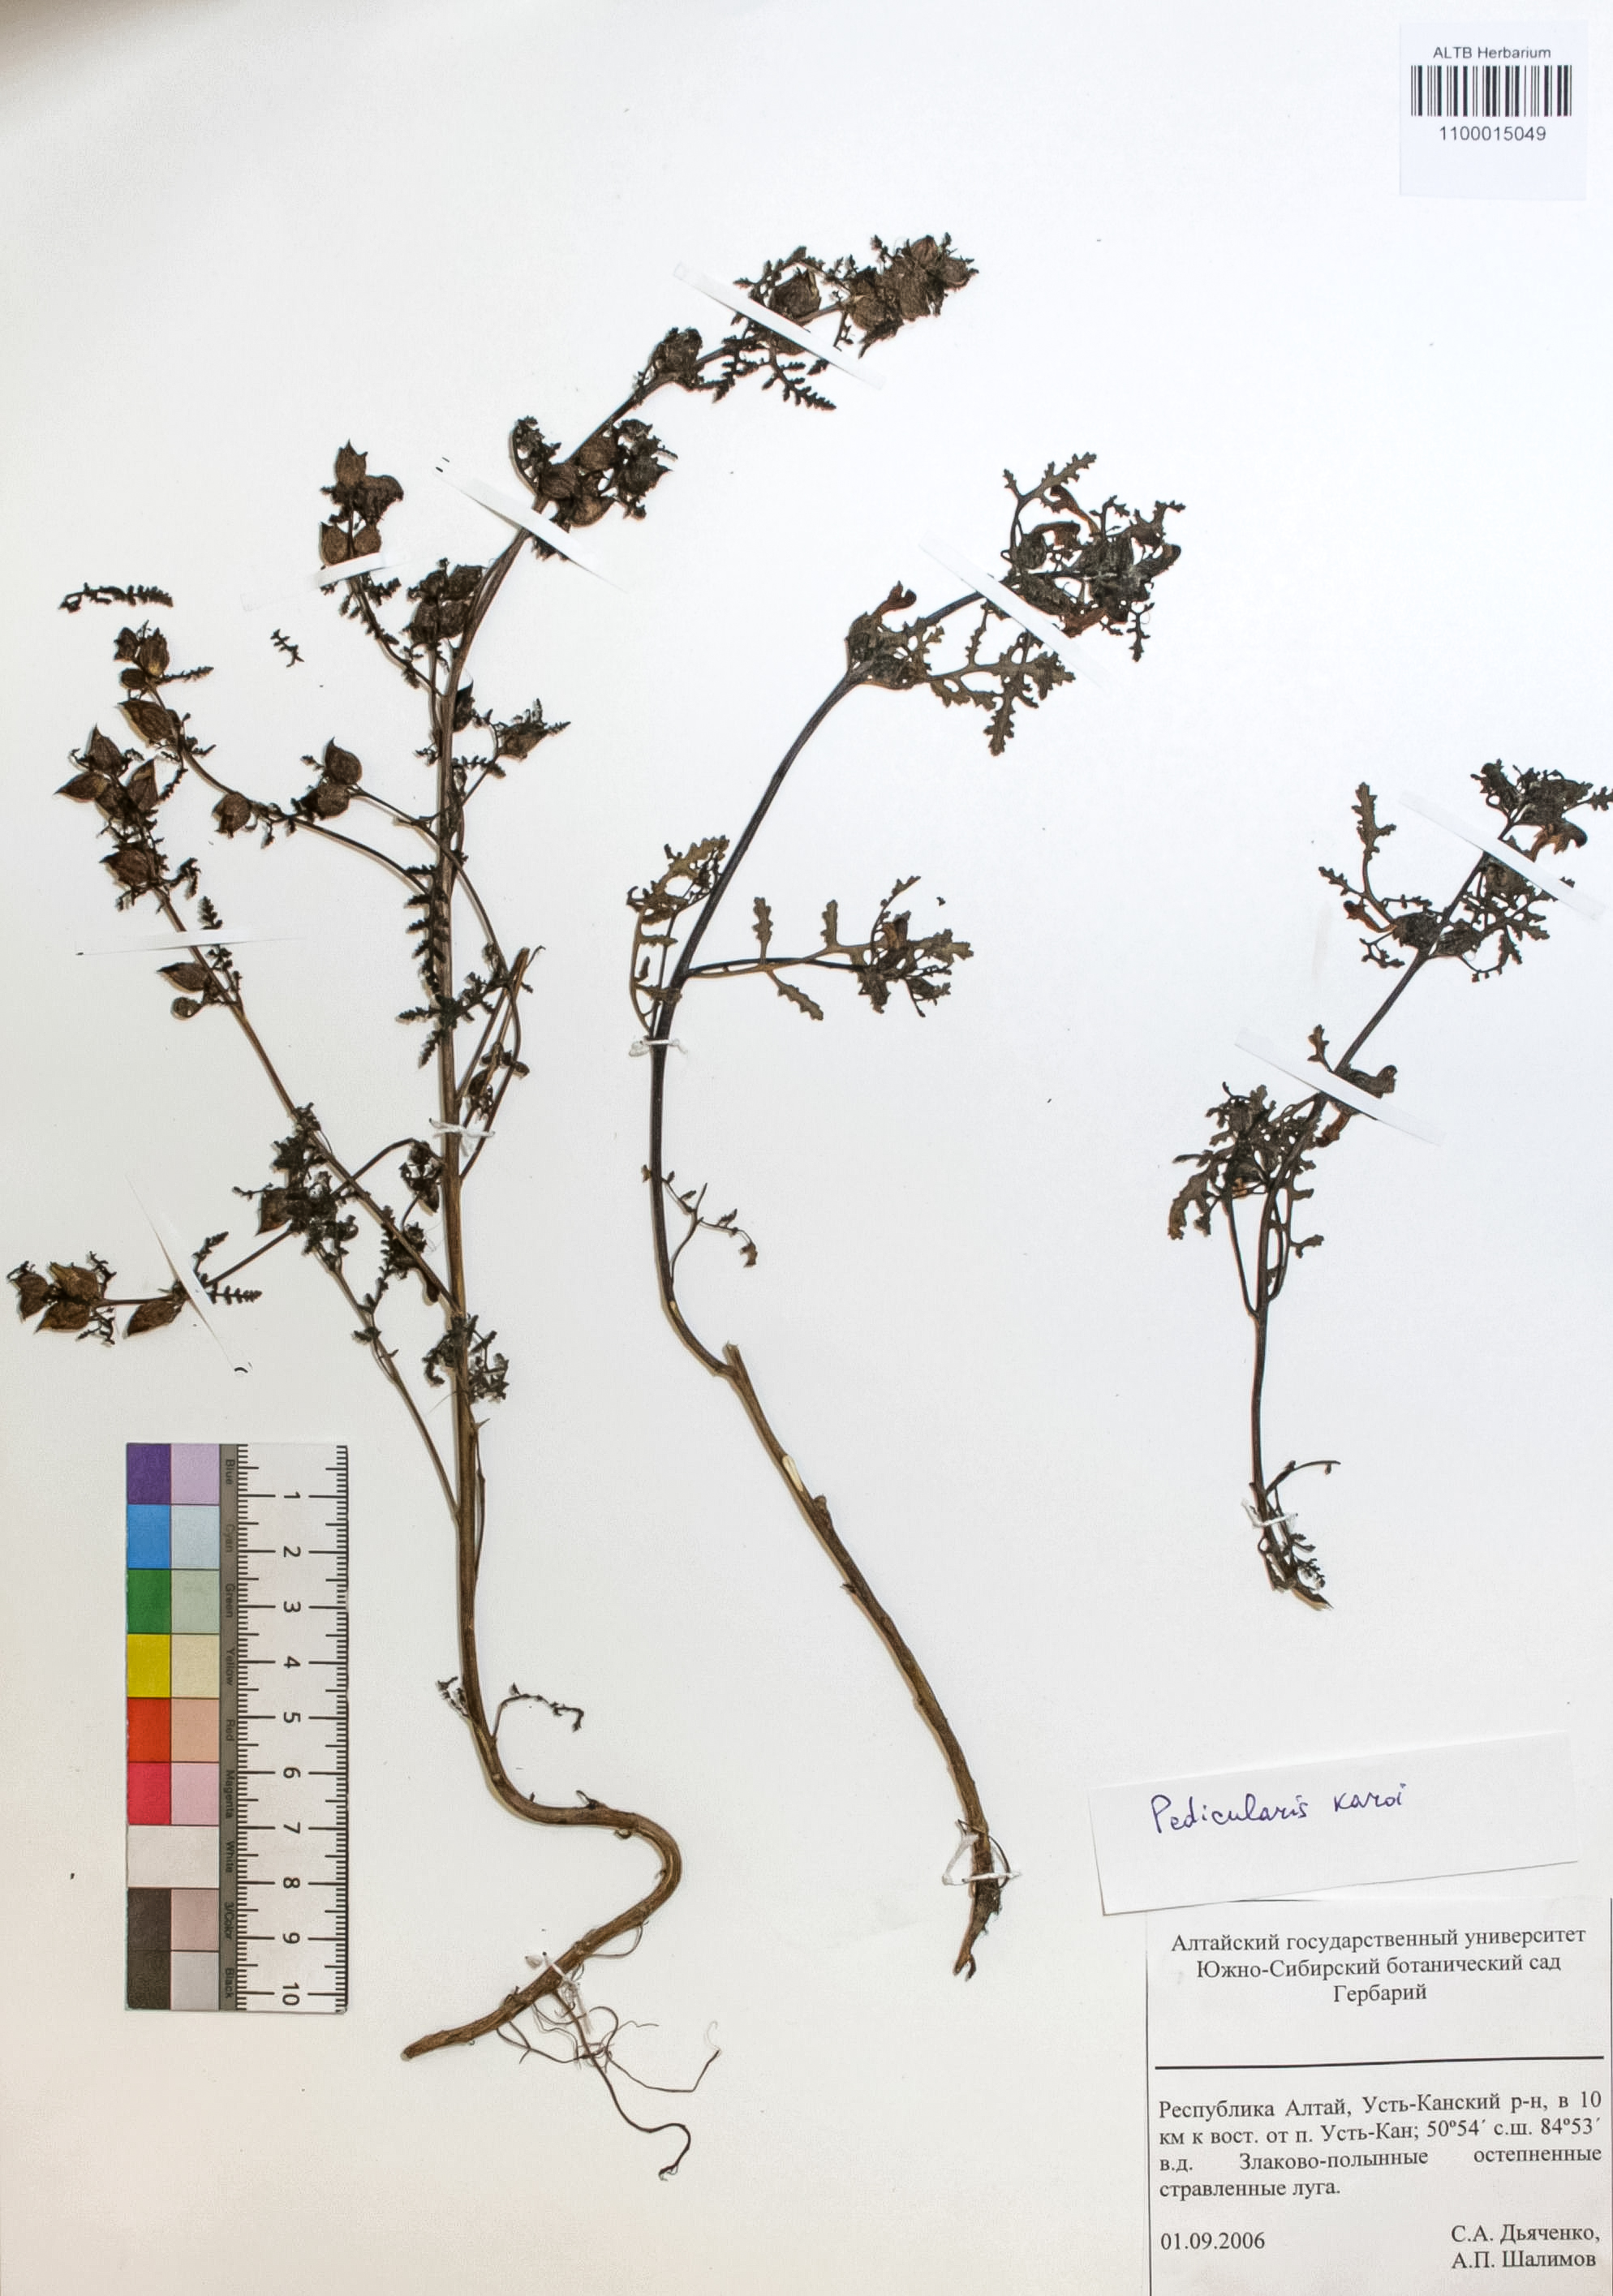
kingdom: Plantae
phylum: Tracheophyta
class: Magnoliopsida
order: Lamiales
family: Orobanchaceae
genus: Pedicularis
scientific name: Pedicularis karoi
